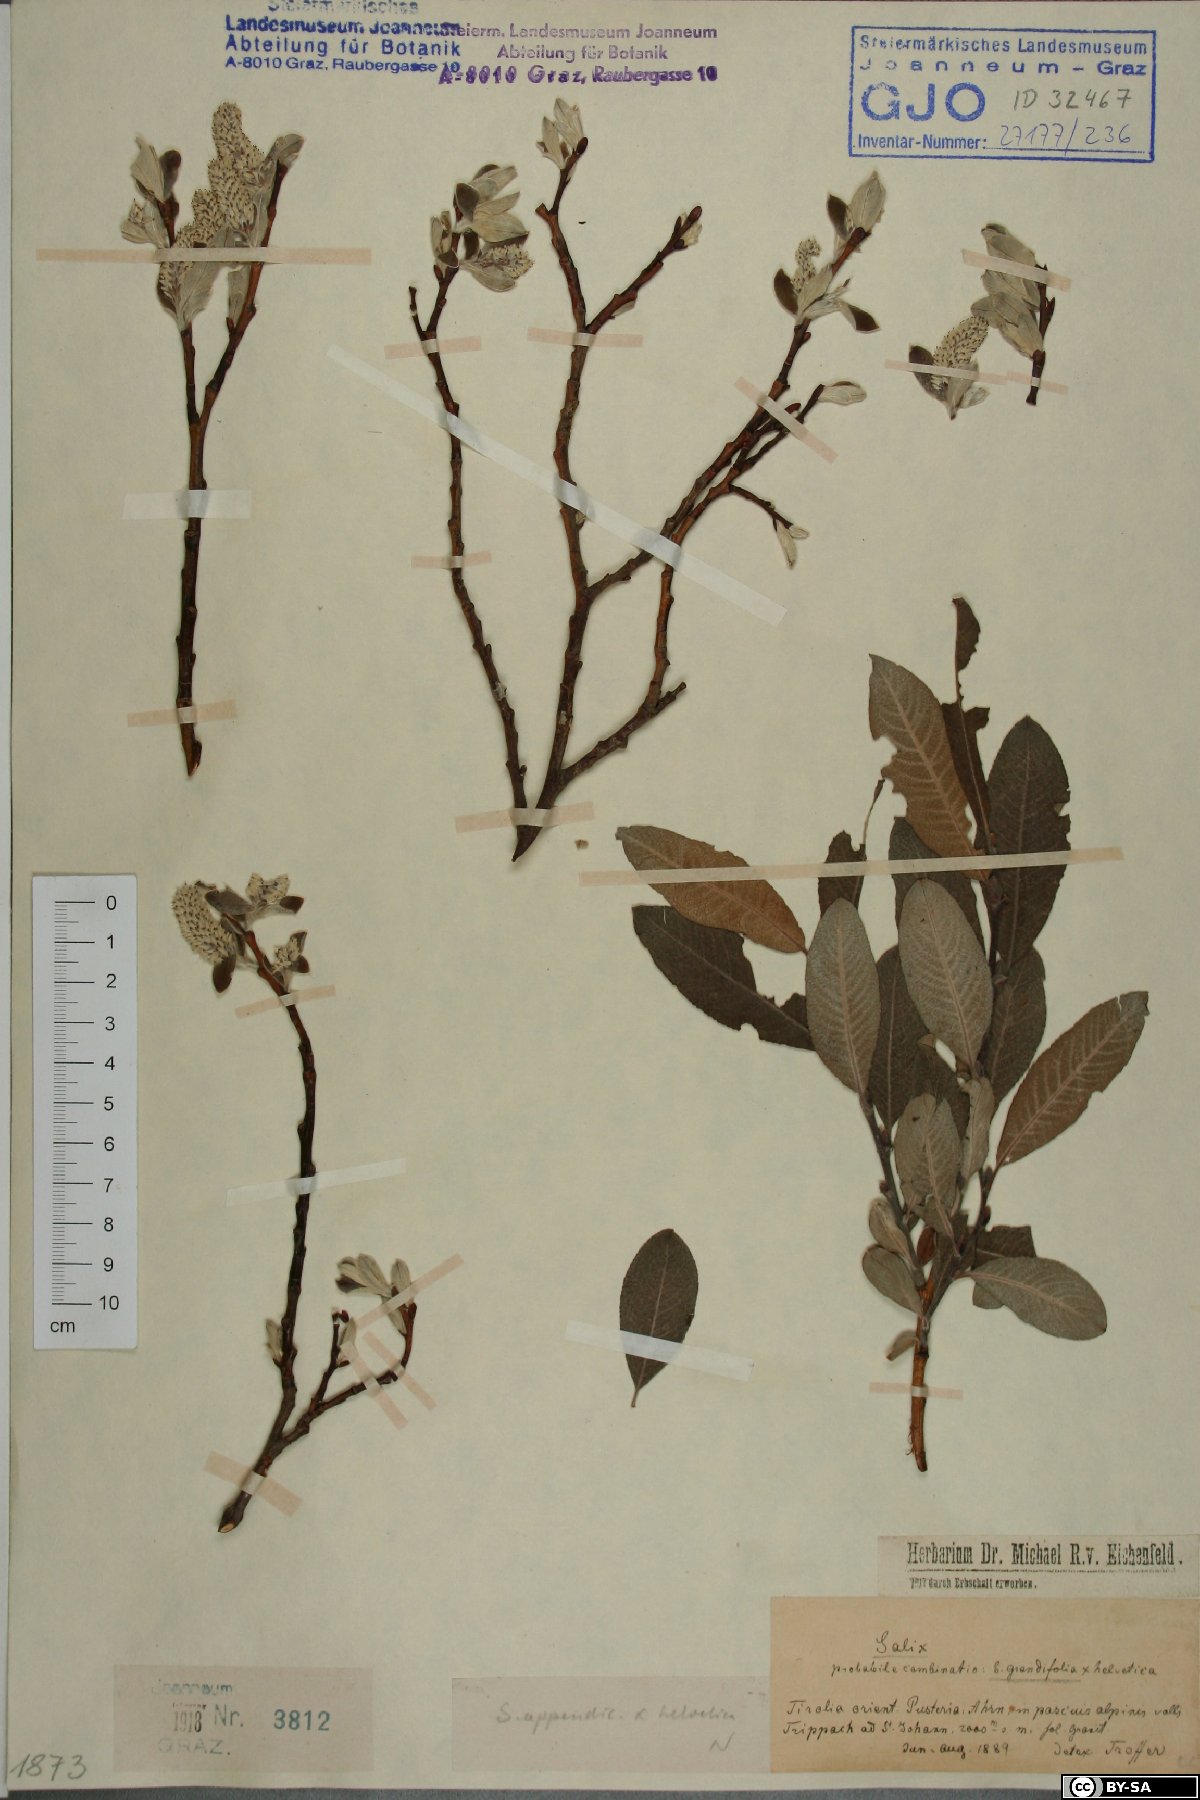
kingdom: Plantae
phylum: Tracheophyta
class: Magnoliopsida
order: Malpighiales
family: Salicaceae
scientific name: Salicaceae
